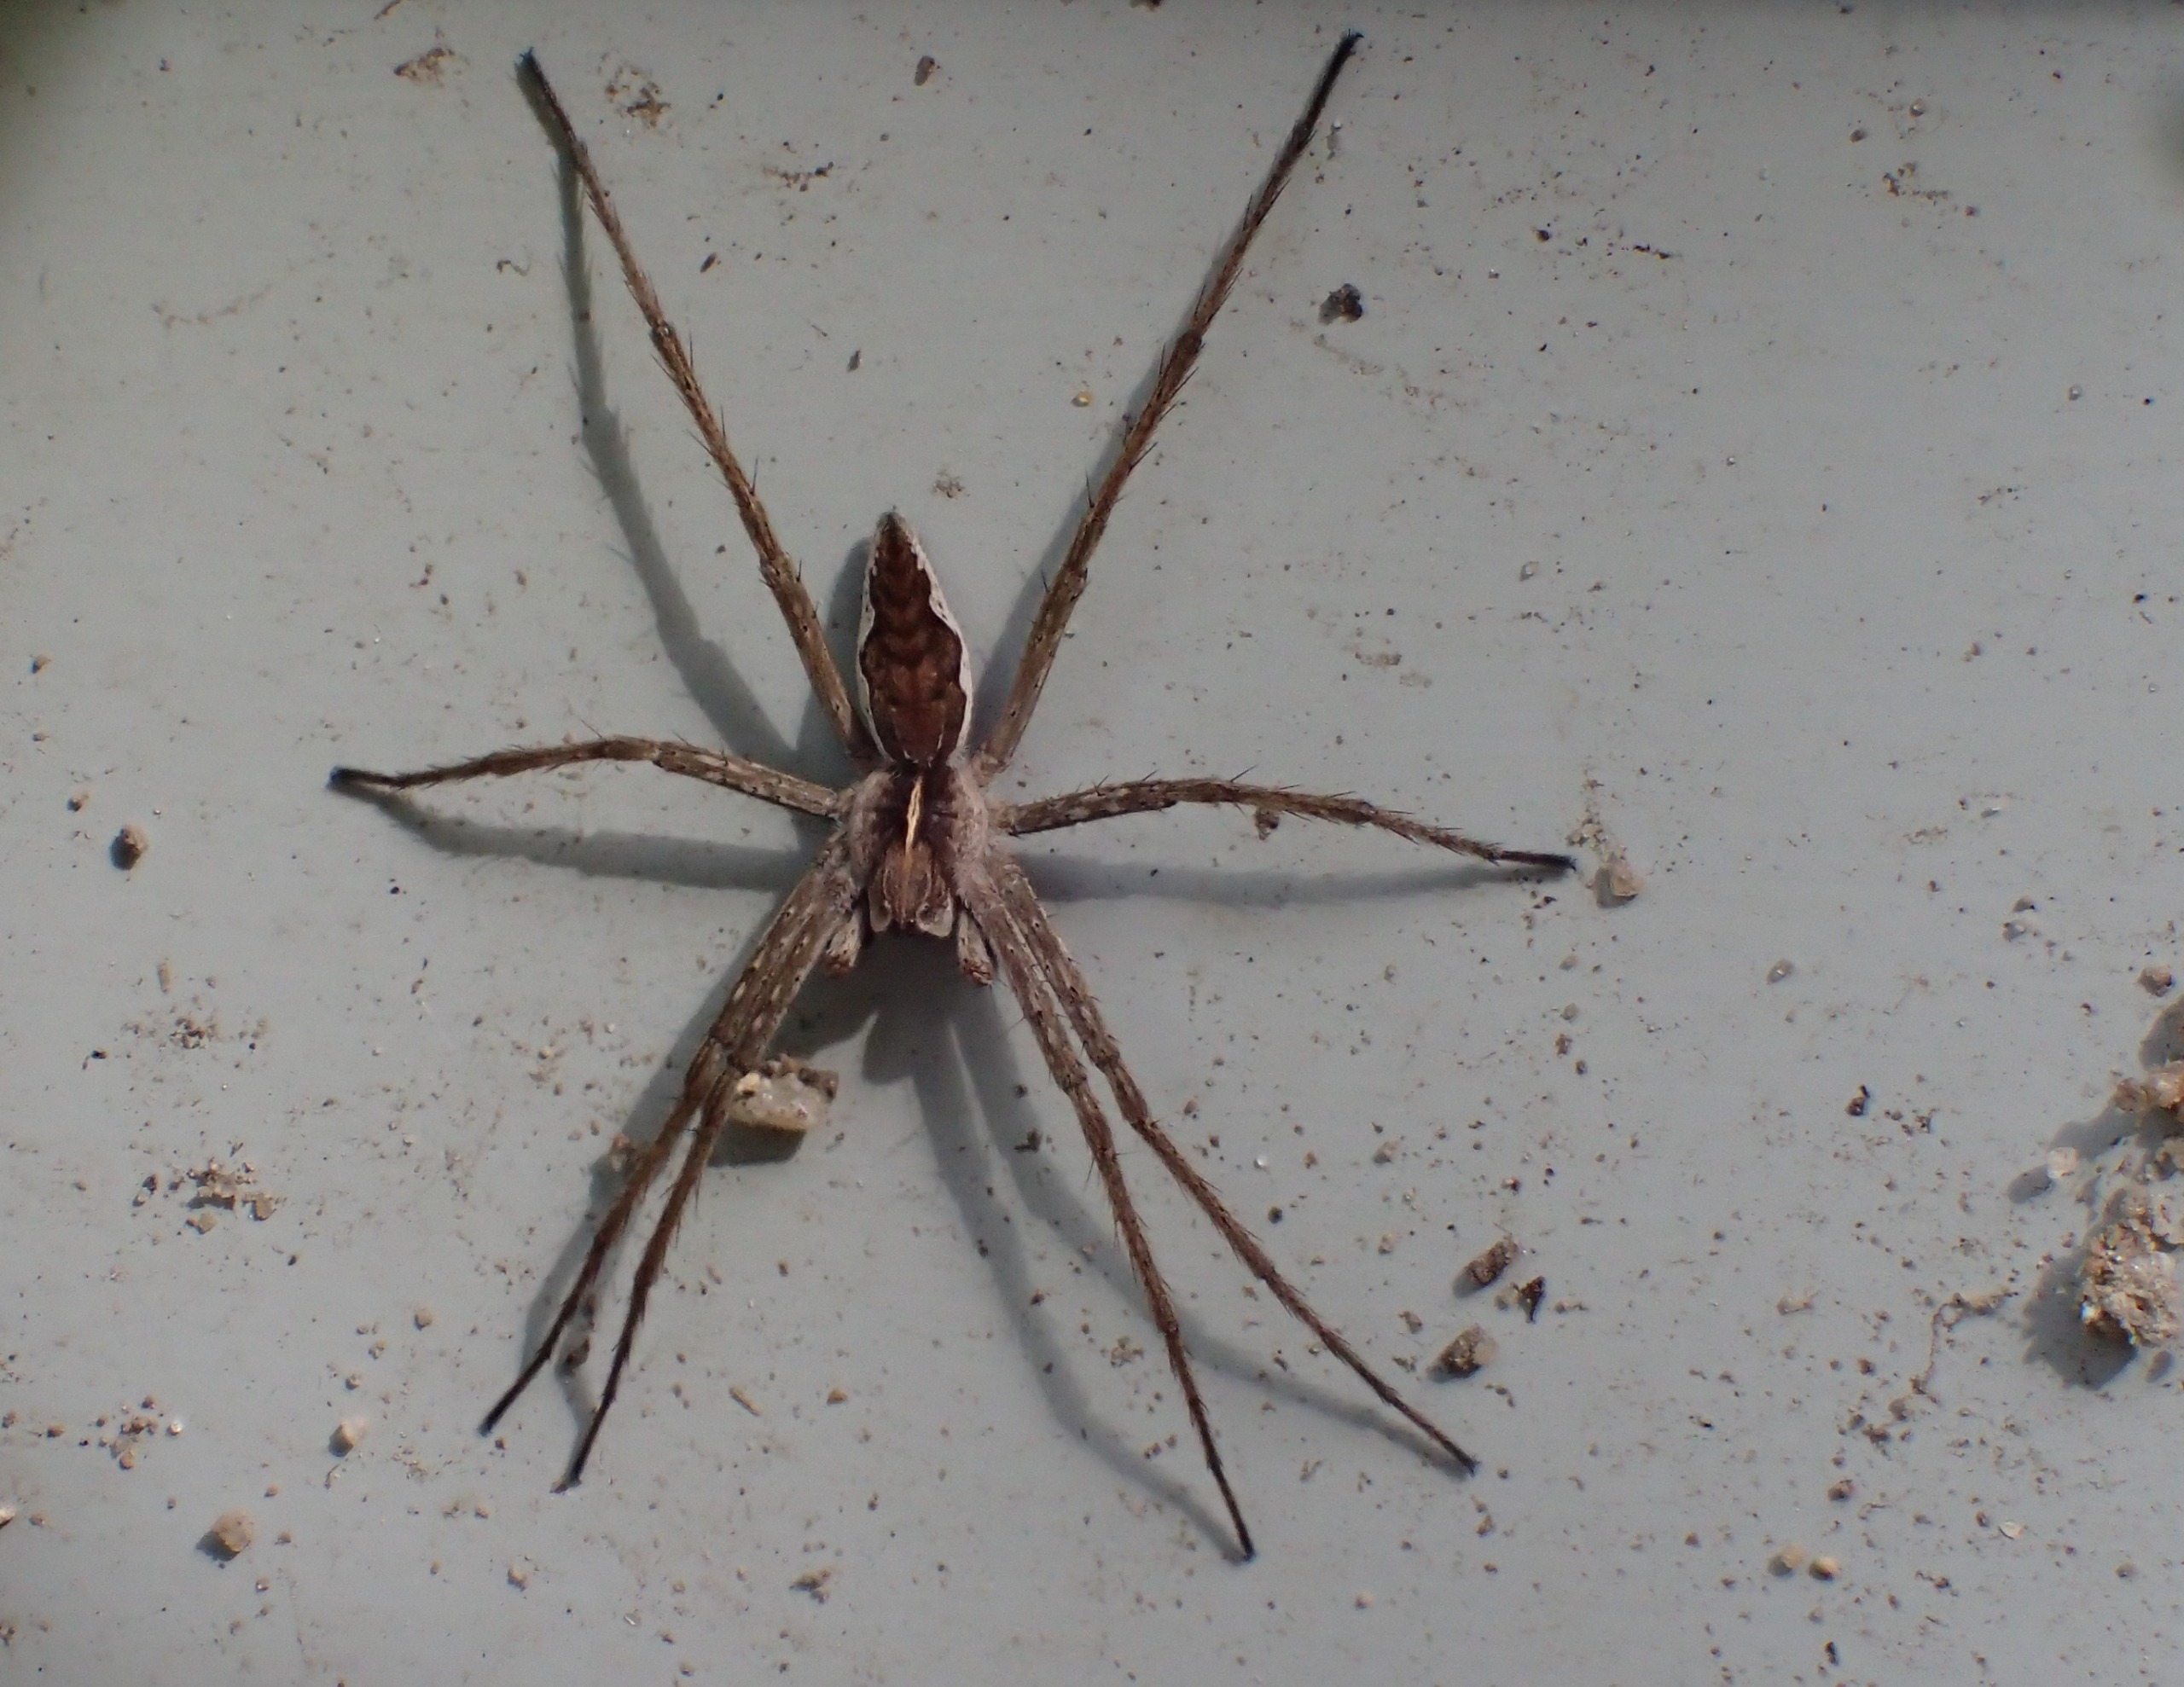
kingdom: Animalia
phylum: Arthropoda
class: Arachnida
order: Araneae
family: Pisauridae
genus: Pisaura
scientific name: Pisaura mirabilis
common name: Almindelig rovedderkop
